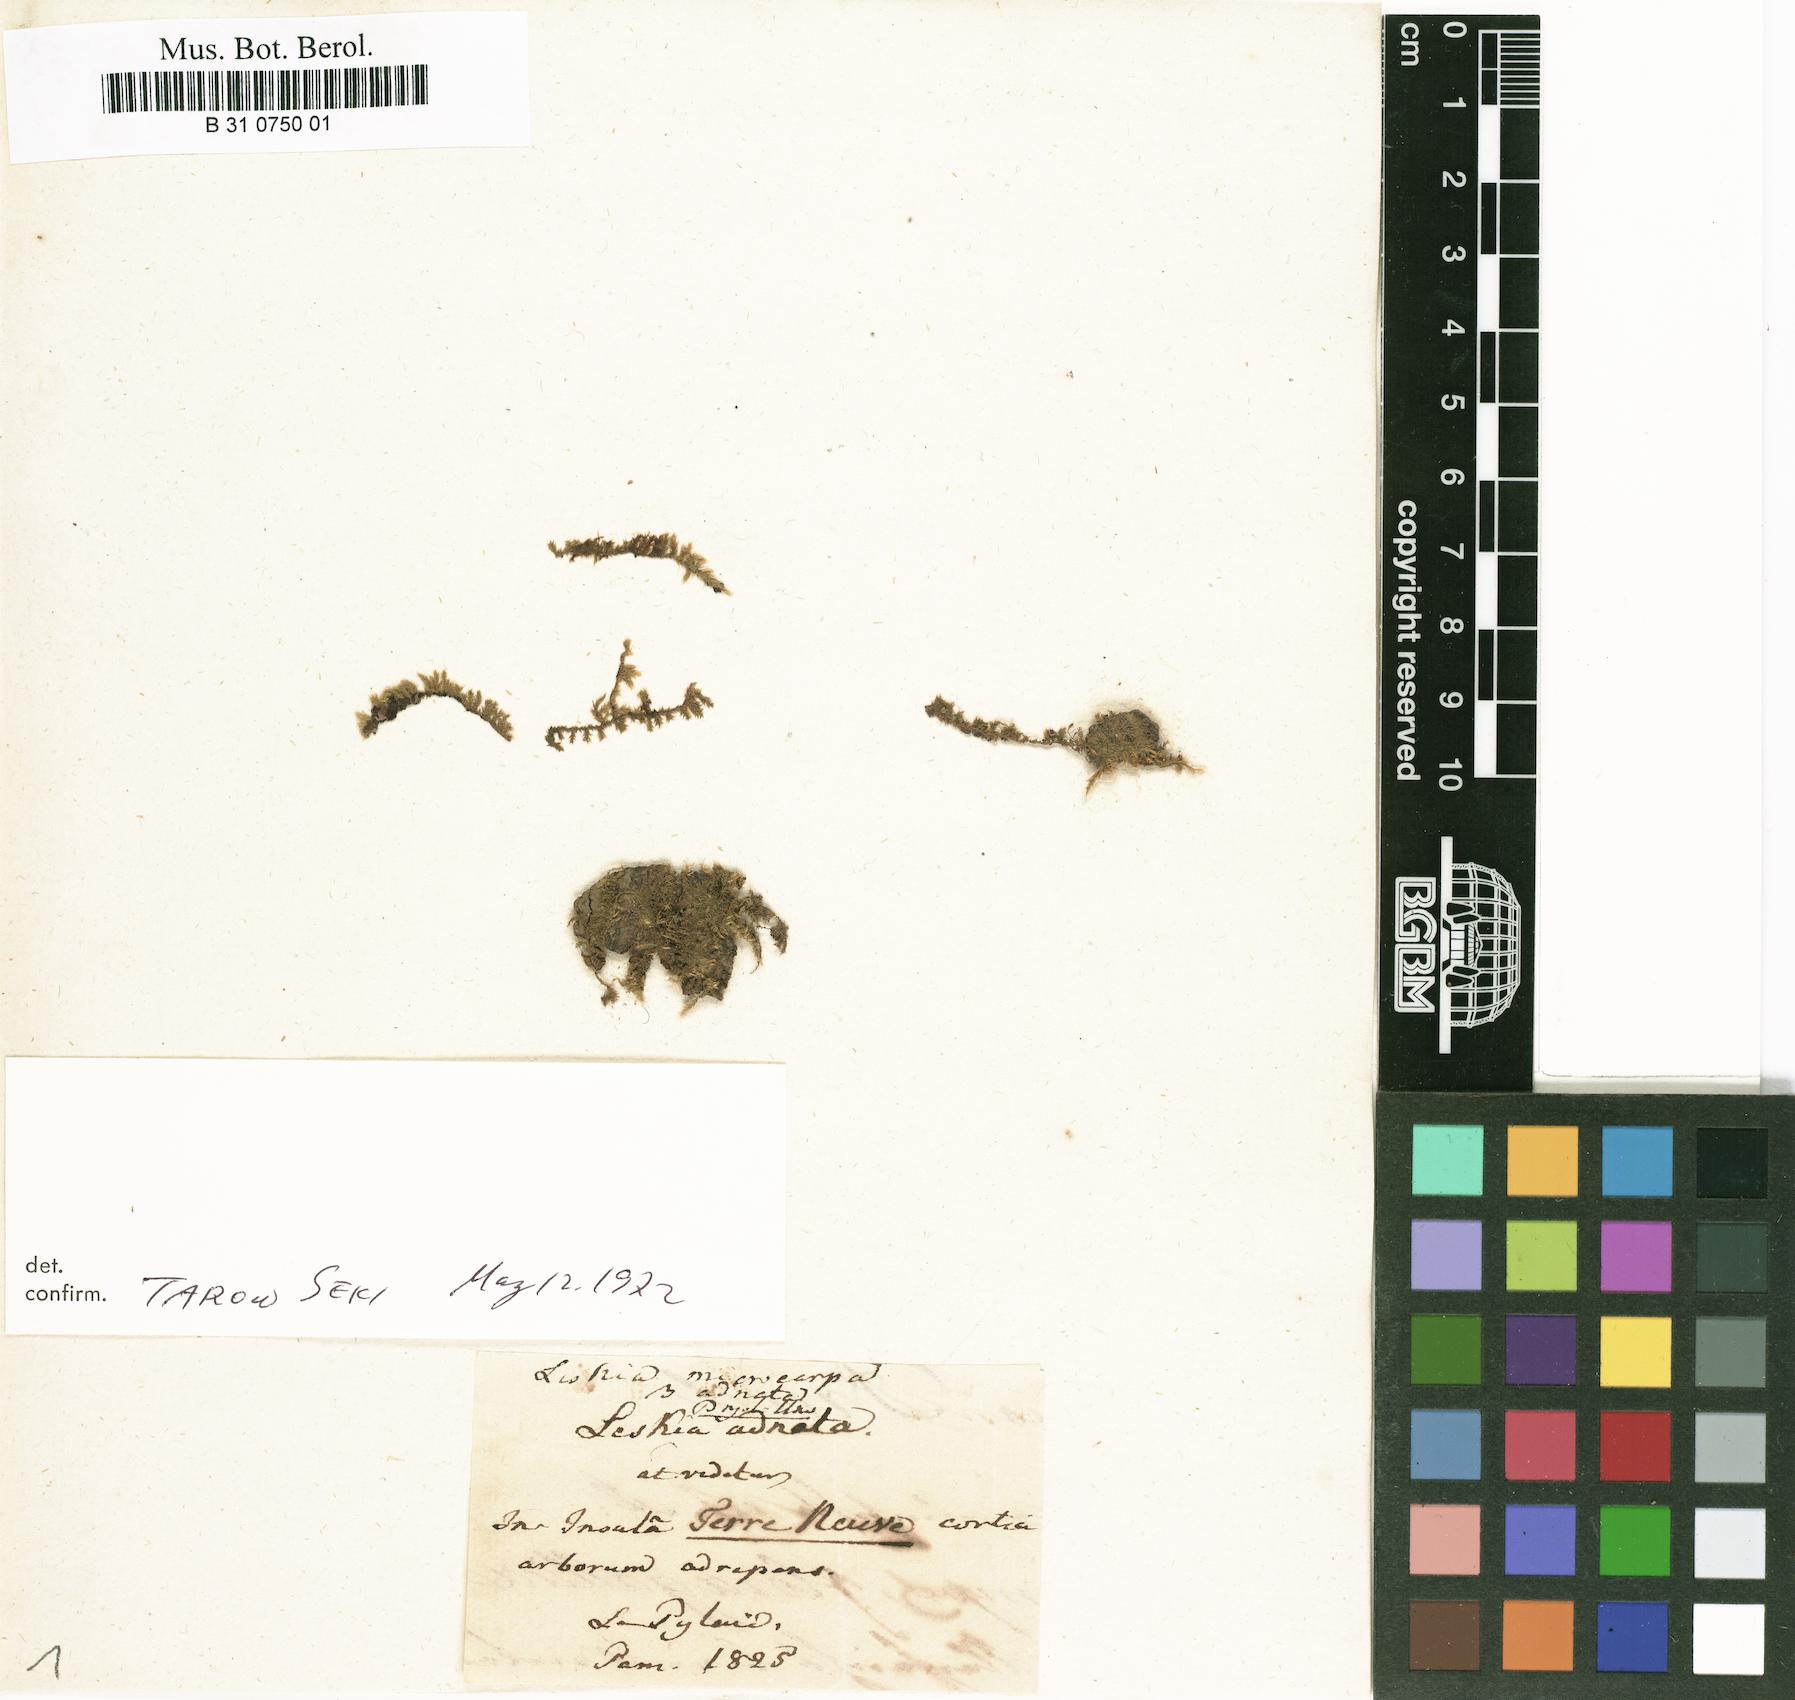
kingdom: Plantae
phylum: Bryophyta
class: Bryopsida
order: Hypnales
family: Sematophyllaceae
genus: Sematophyllum
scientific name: Sematophyllum adnatum
